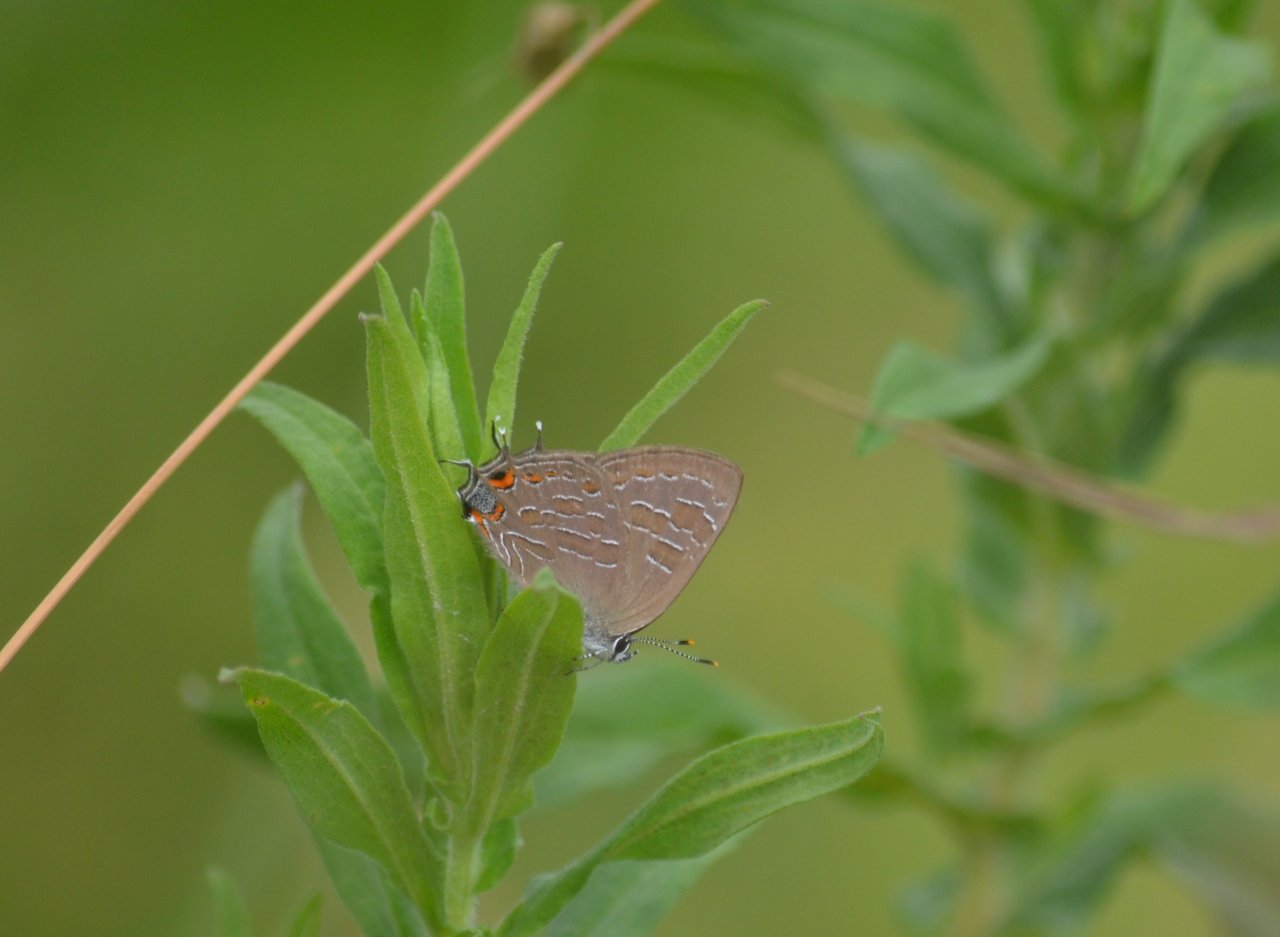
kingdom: Animalia
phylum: Arthropoda
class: Insecta
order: Lepidoptera
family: Lycaenidae
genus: Satyrium
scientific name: Satyrium liparops
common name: Striped Hairstreak
